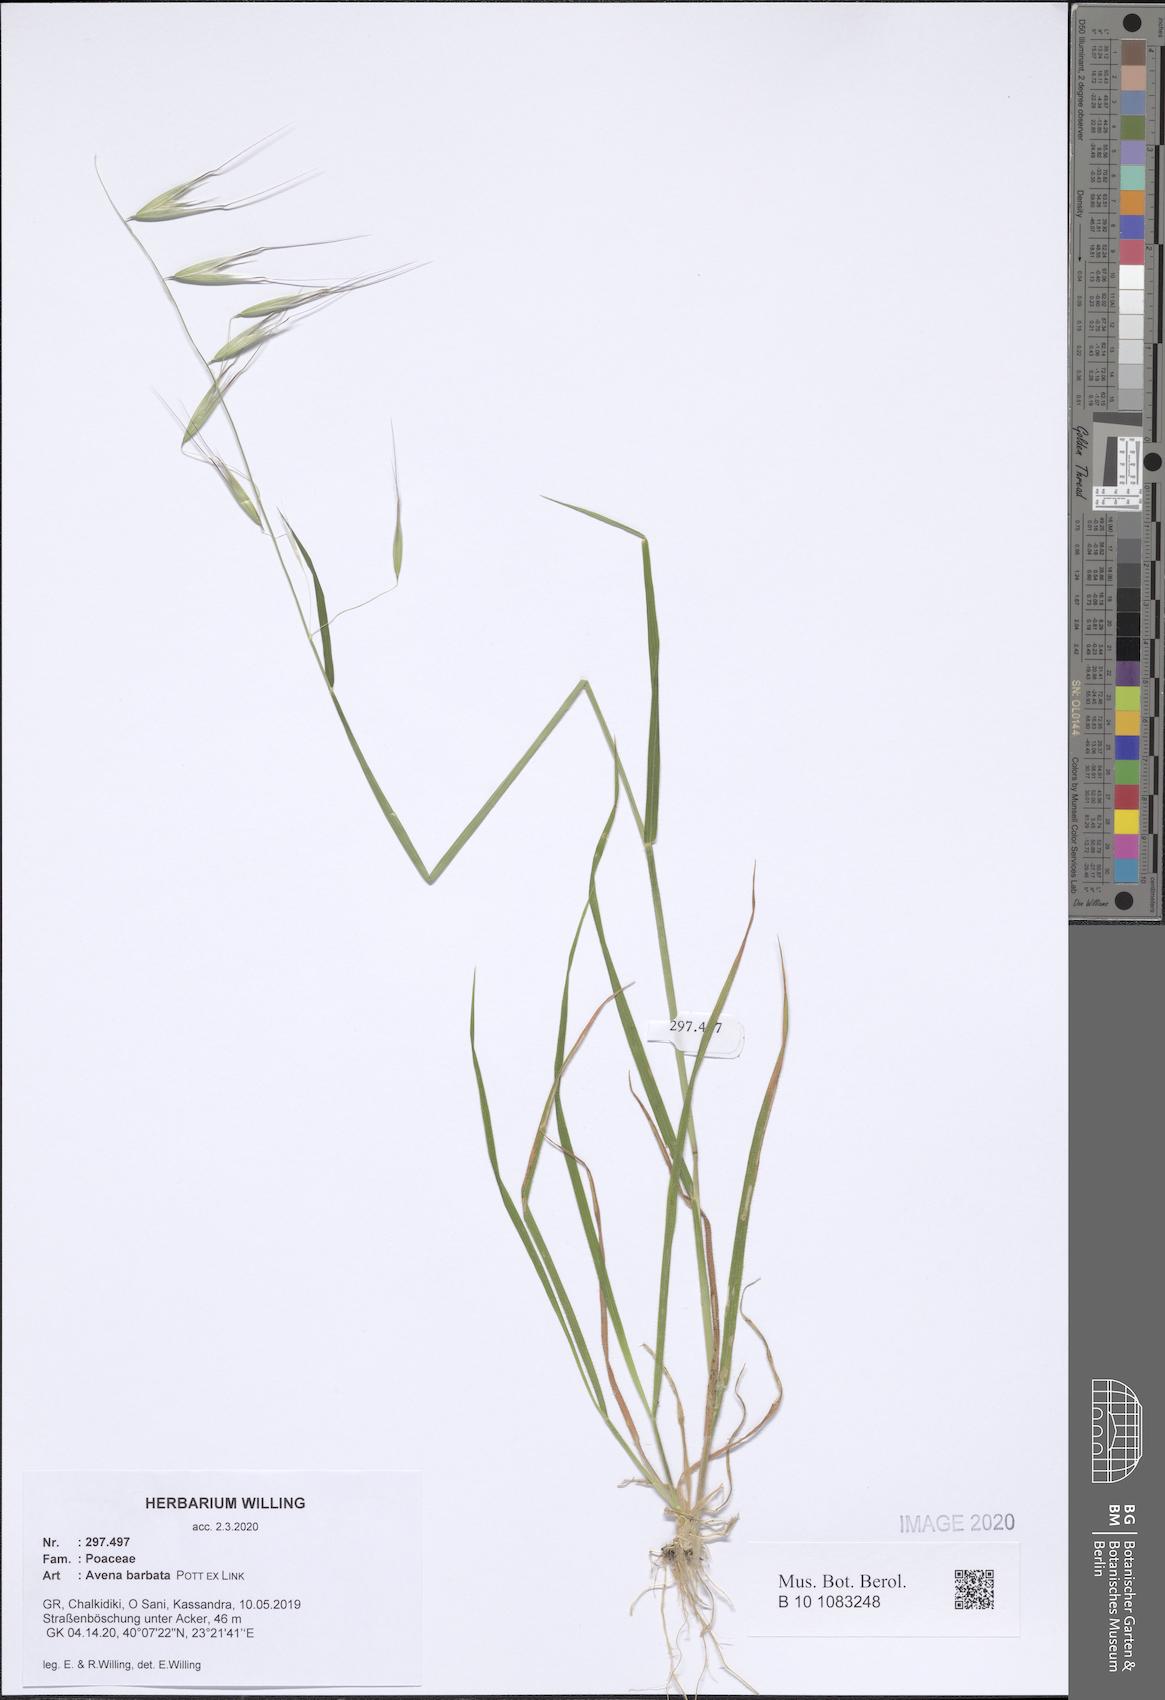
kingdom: Plantae
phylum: Tracheophyta
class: Liliopsida
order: Poales
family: Poaceae
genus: Avena
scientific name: Avena barbata
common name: Slender oat
